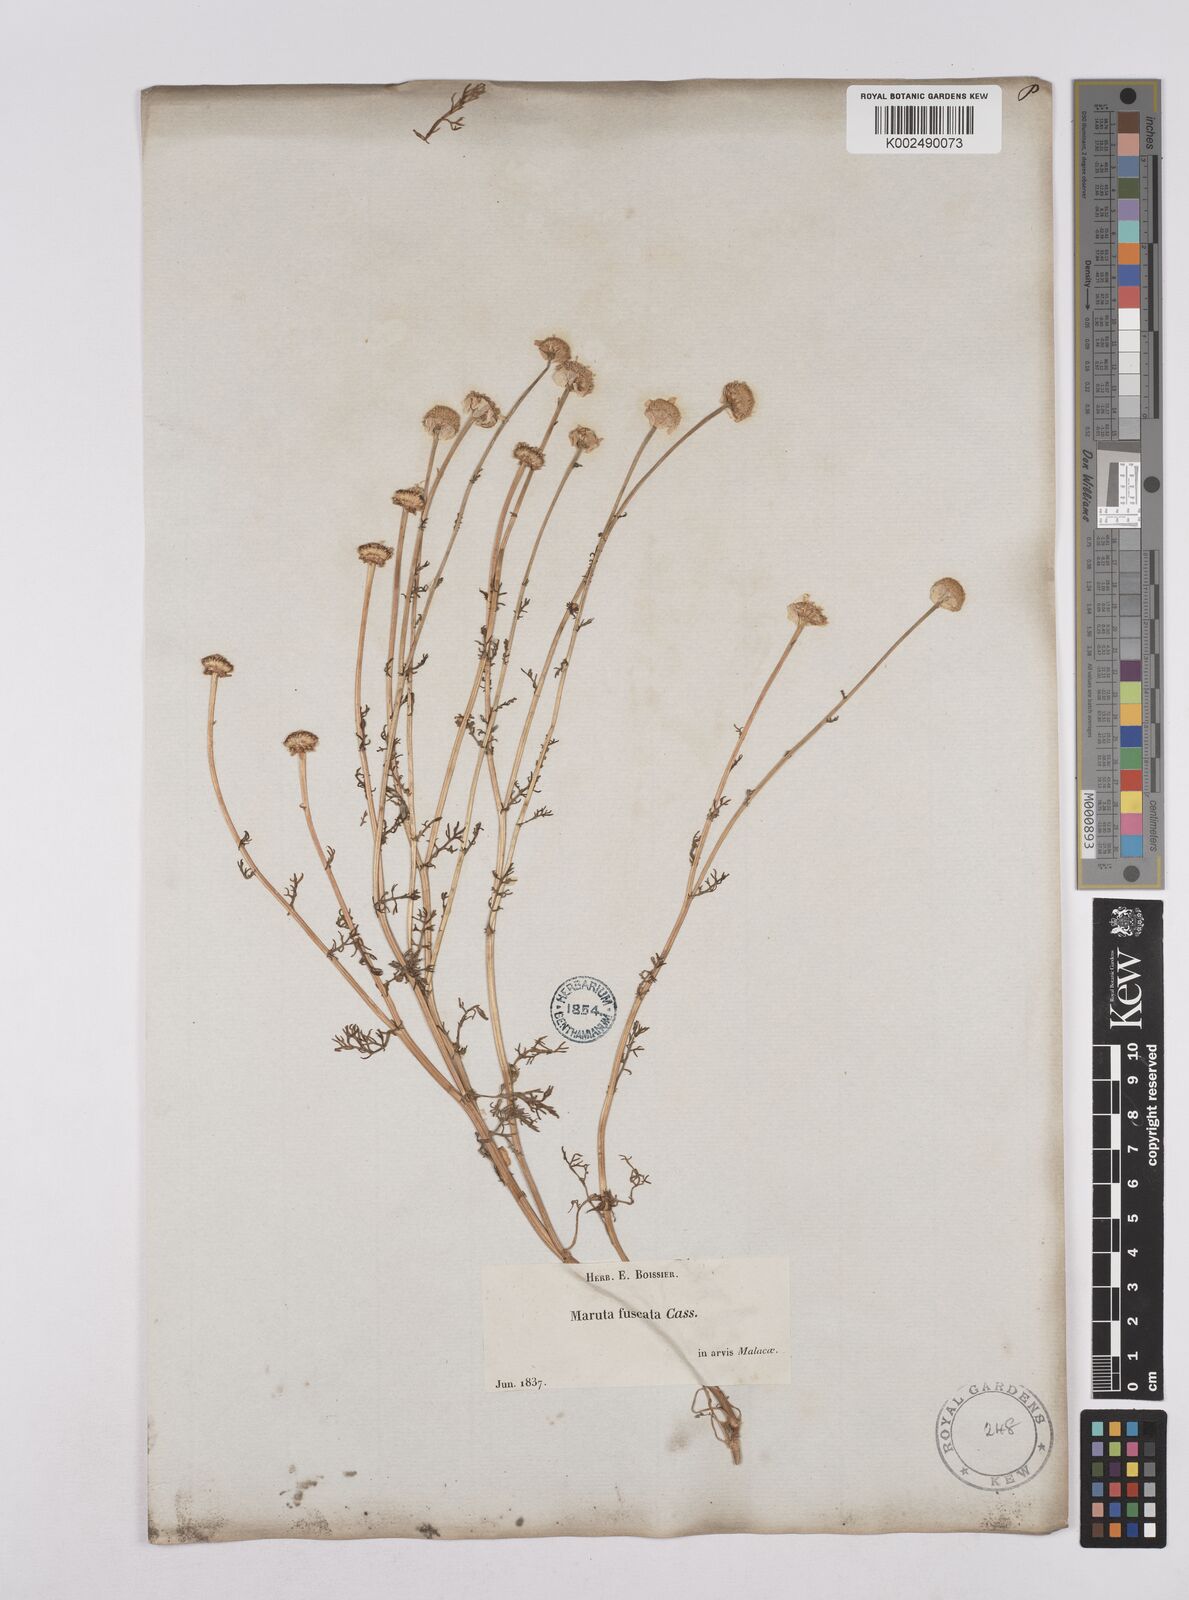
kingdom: Plantae
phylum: Tracheophyta
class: Magnoliopsida
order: Asterales
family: Asteraceae
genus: Chamaemelum
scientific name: Chamaemelum fuscatum
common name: Chamomile
